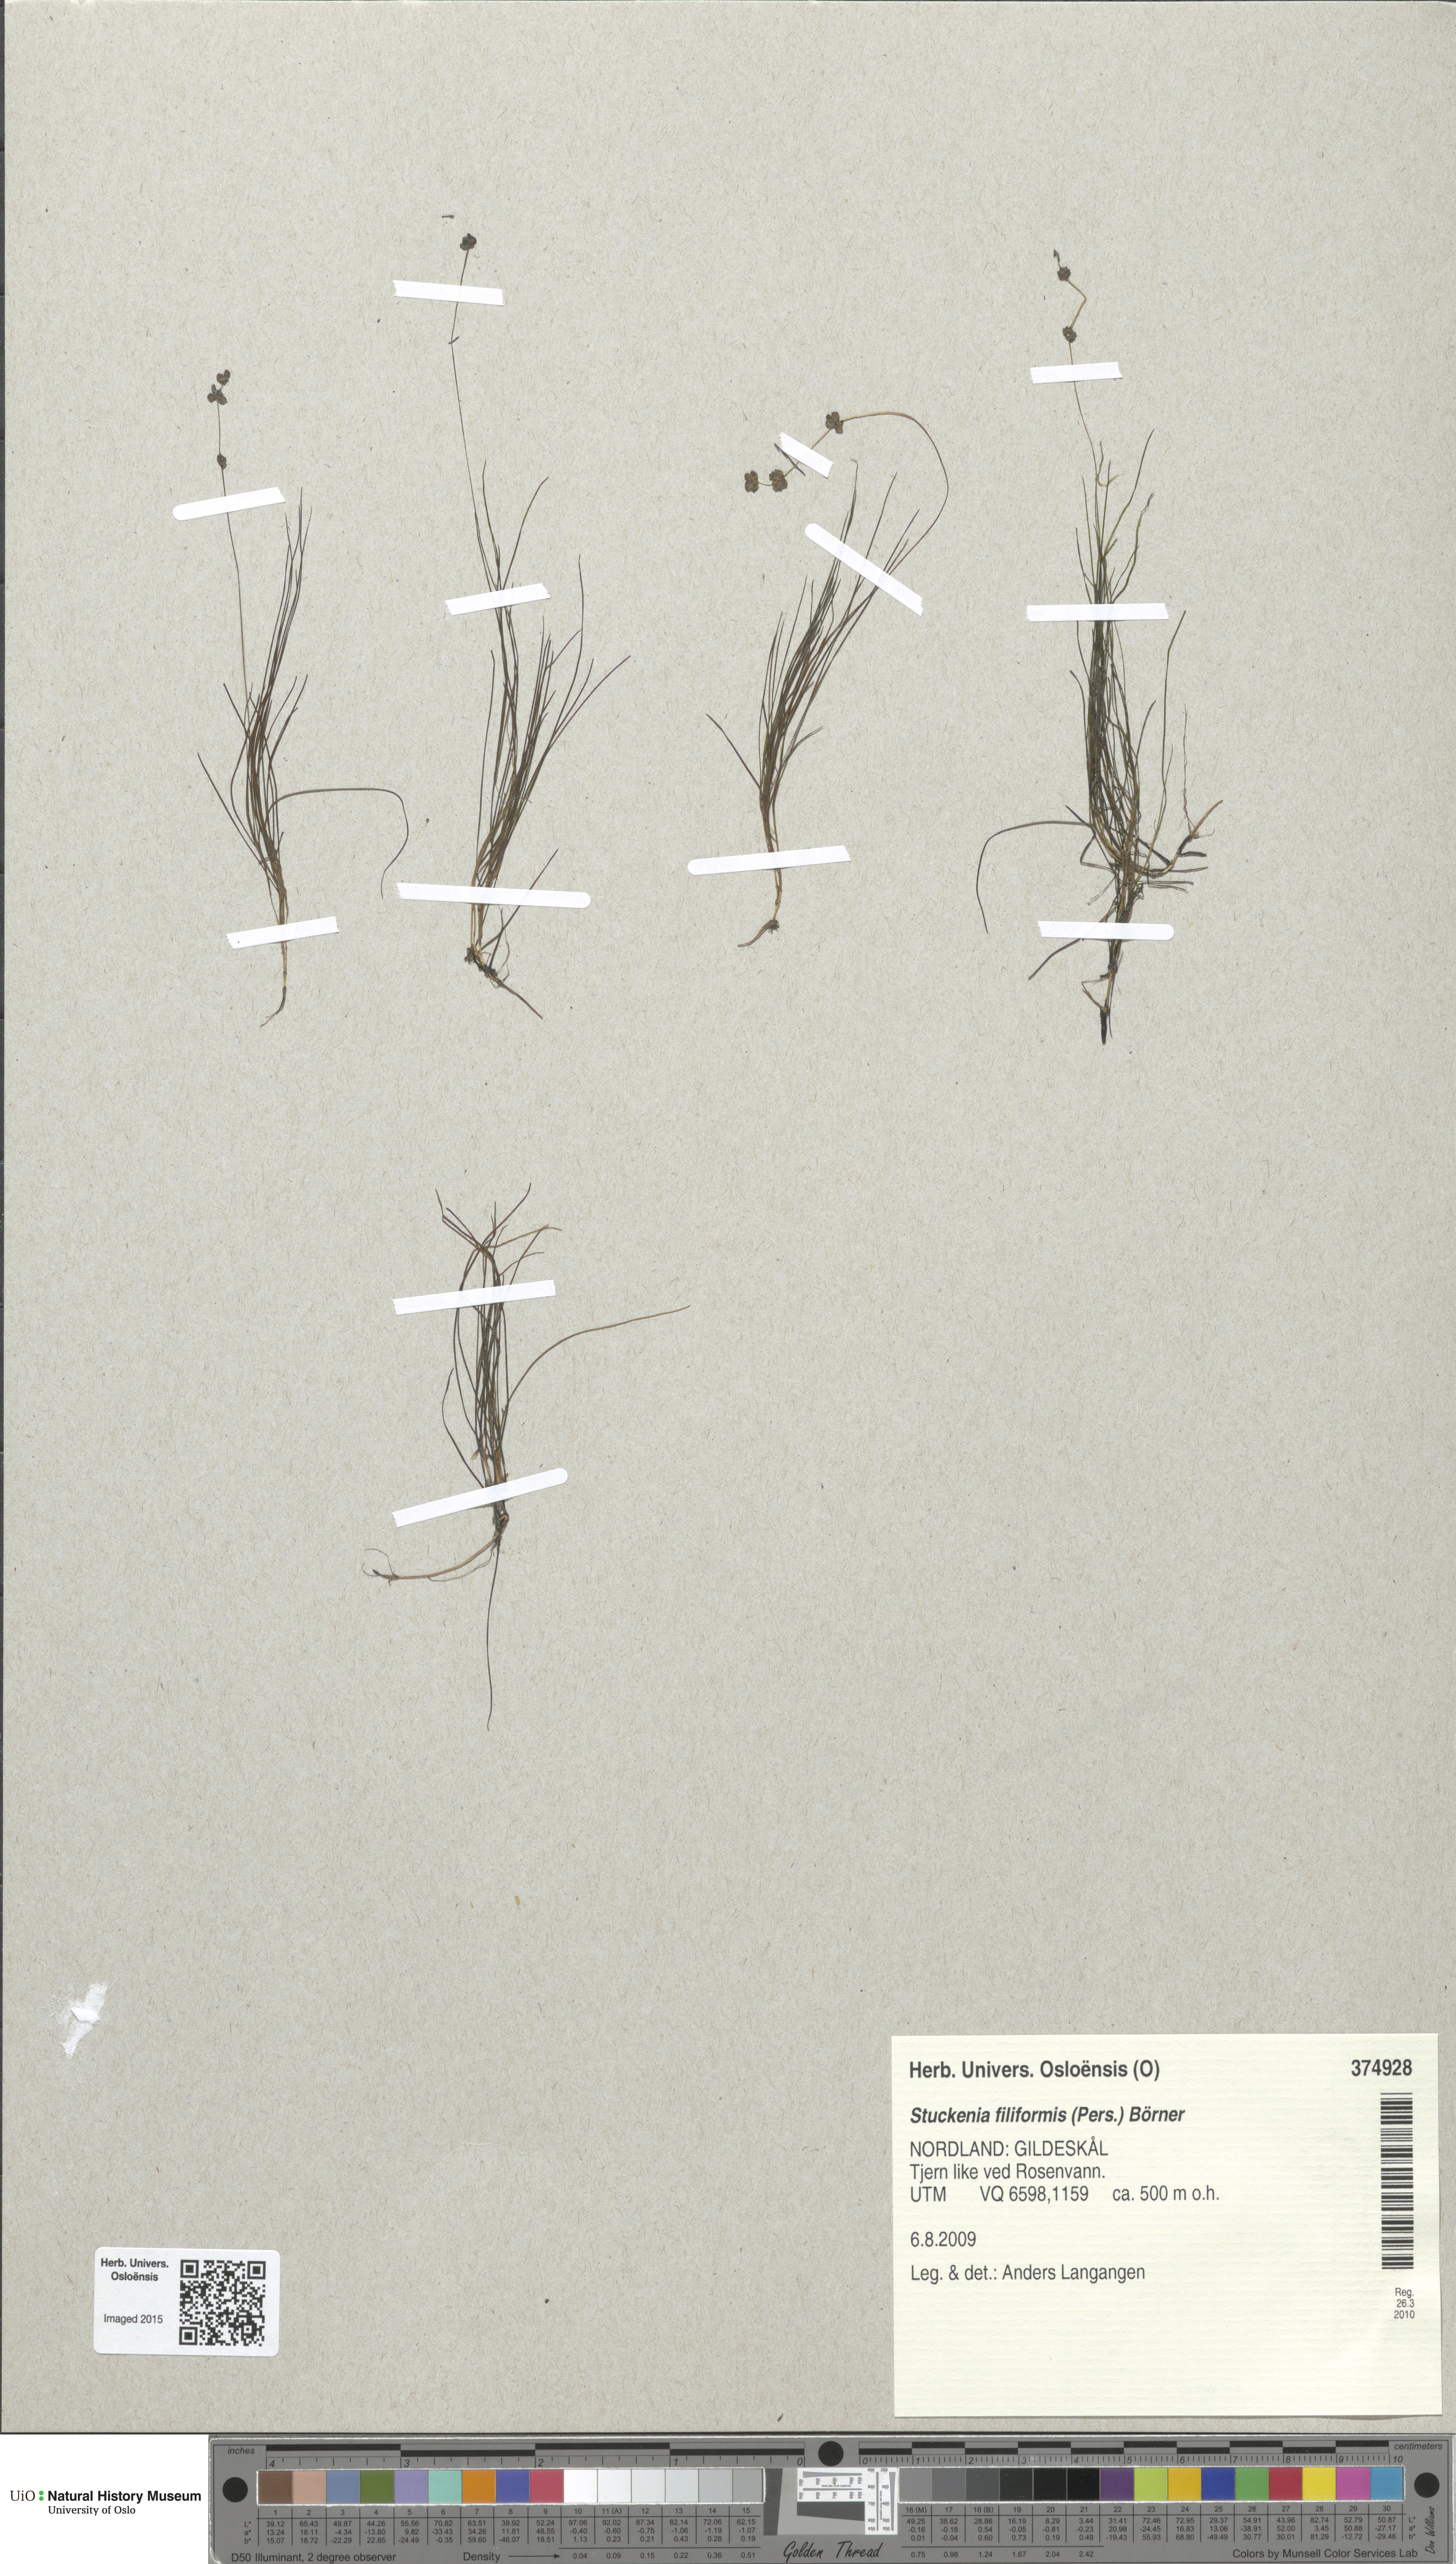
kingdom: Plantae
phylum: Tracheophyta
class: Liliopsida
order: Alismatales
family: Potamogetonaceae
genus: Stuckenia
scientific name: Stuckenia filiformis
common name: Alpine thread-leaved pondweed
